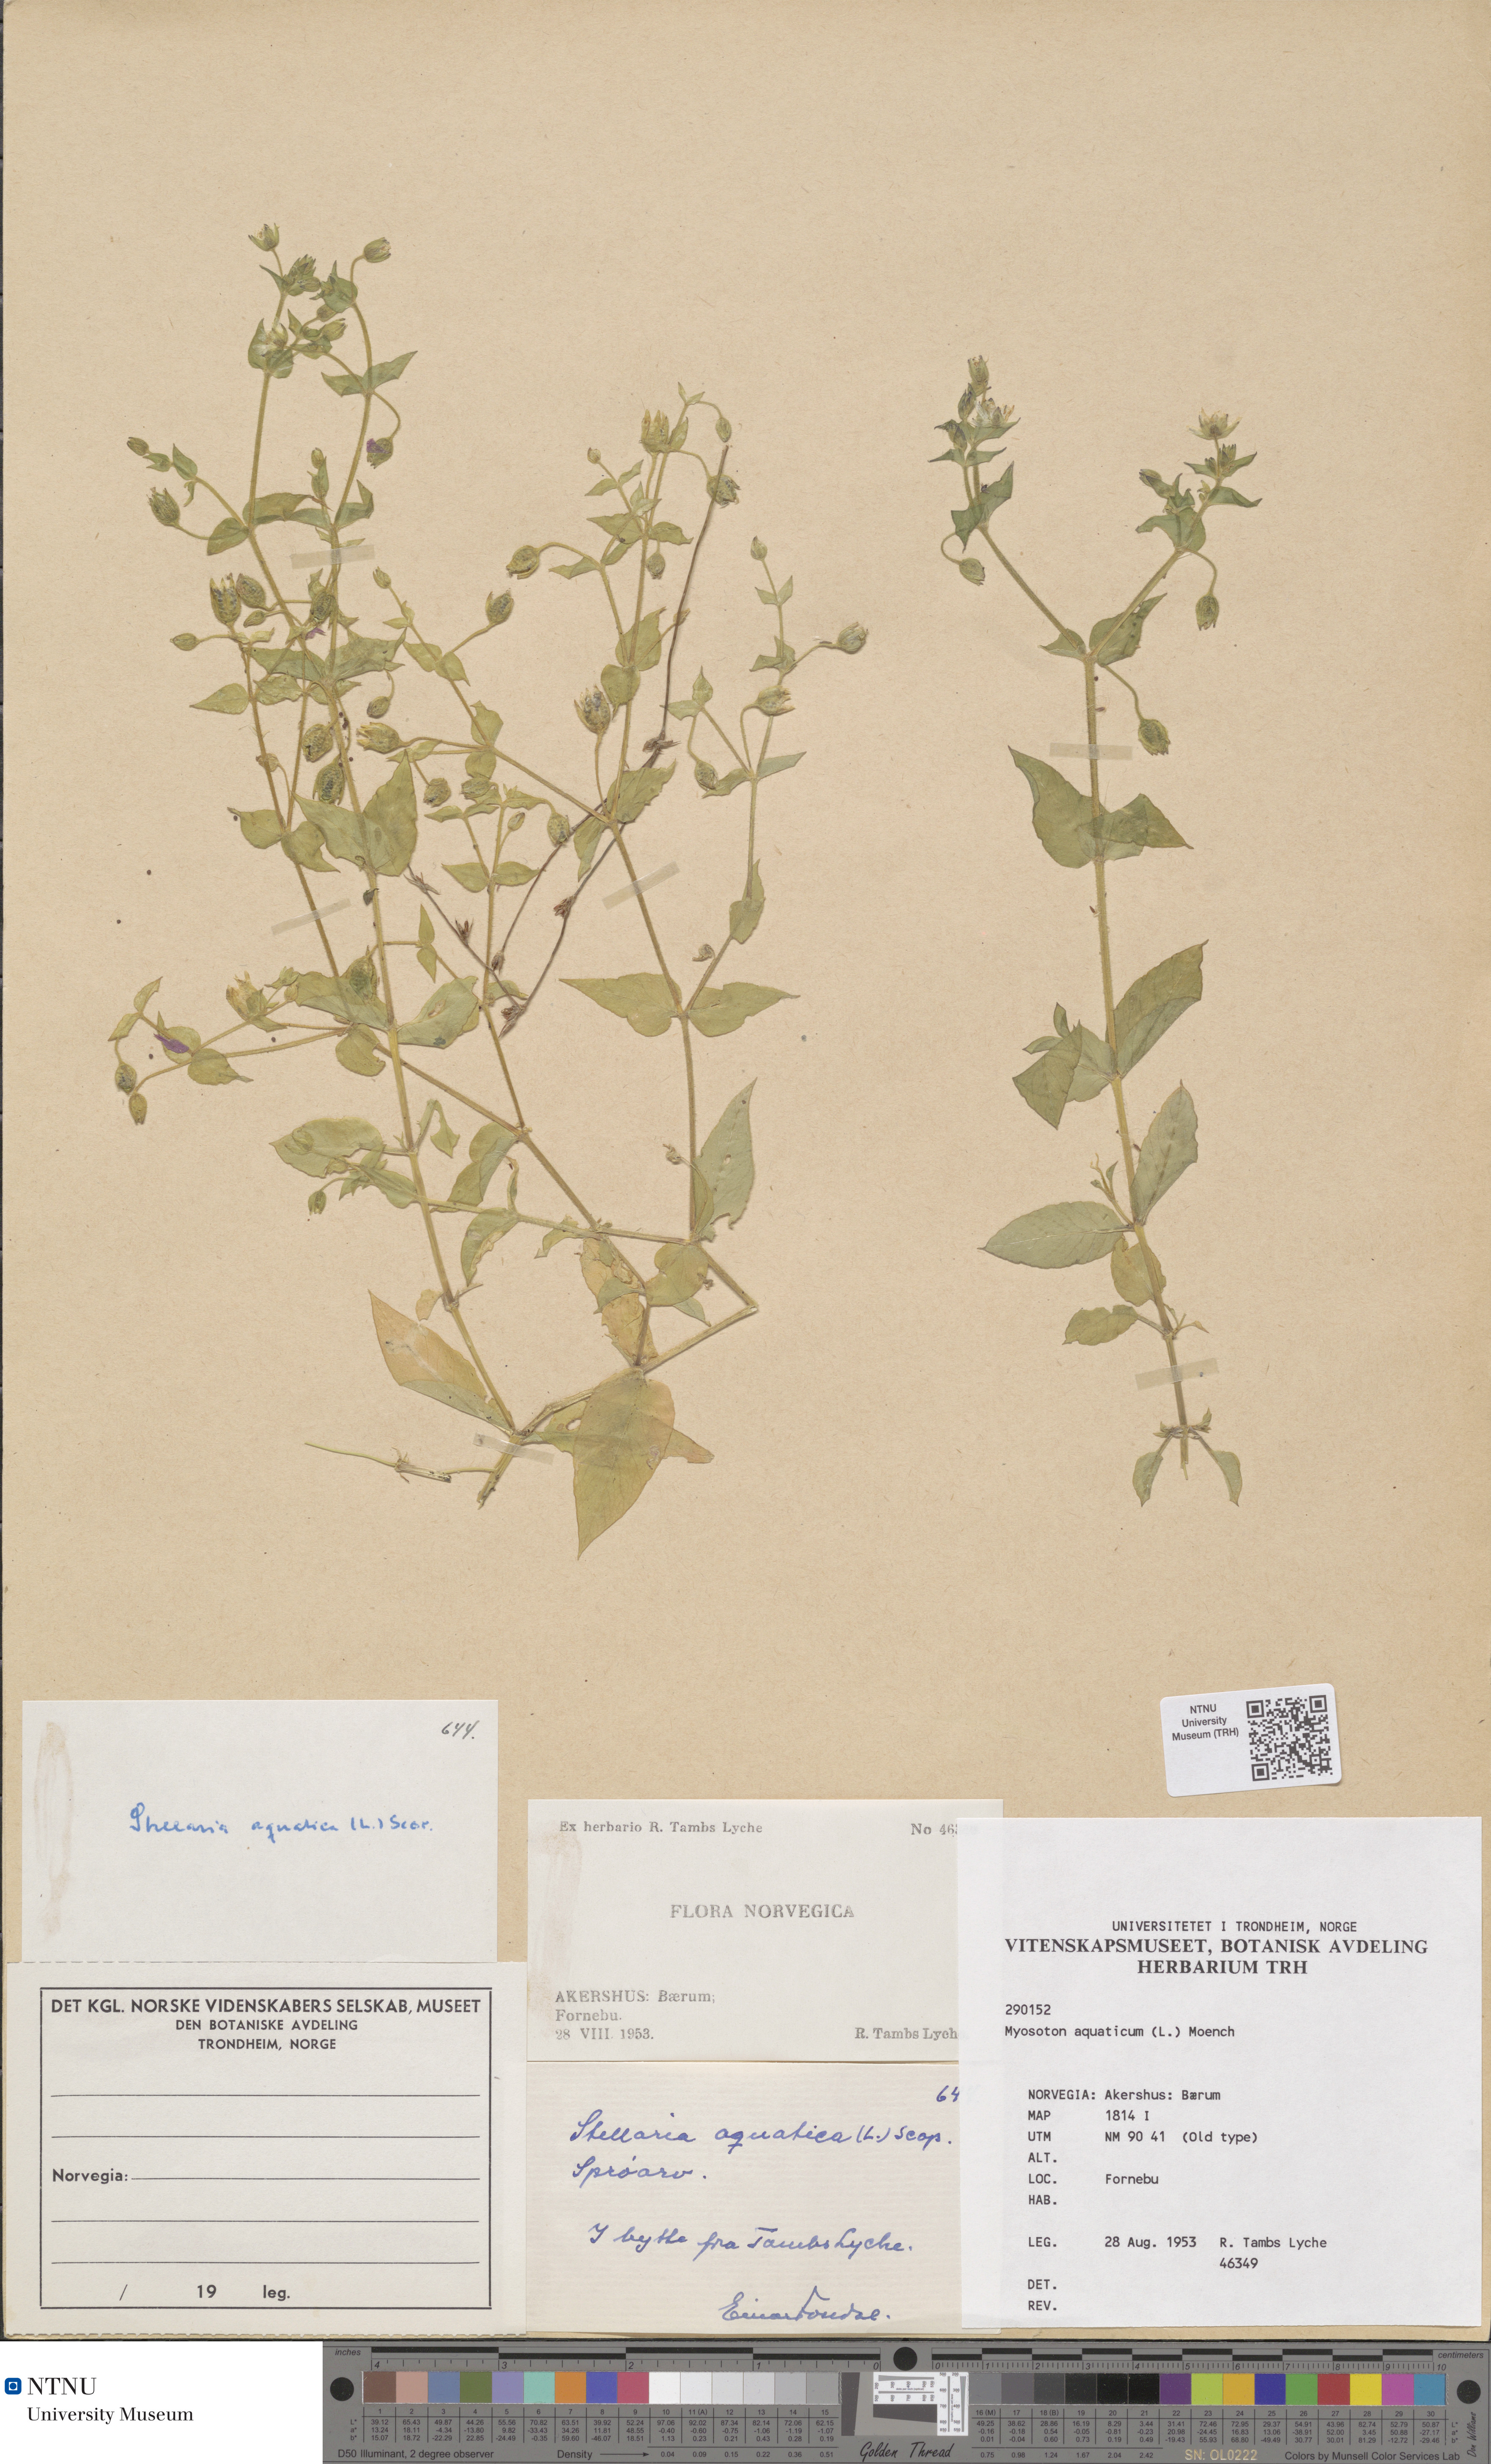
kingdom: Plantae
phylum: Tracheophyta
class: Magnoliopsida
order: Caryophyllales
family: Caryophyllaceae
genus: Stellaria
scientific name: Stellaria aquatica
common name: Water chickweed
